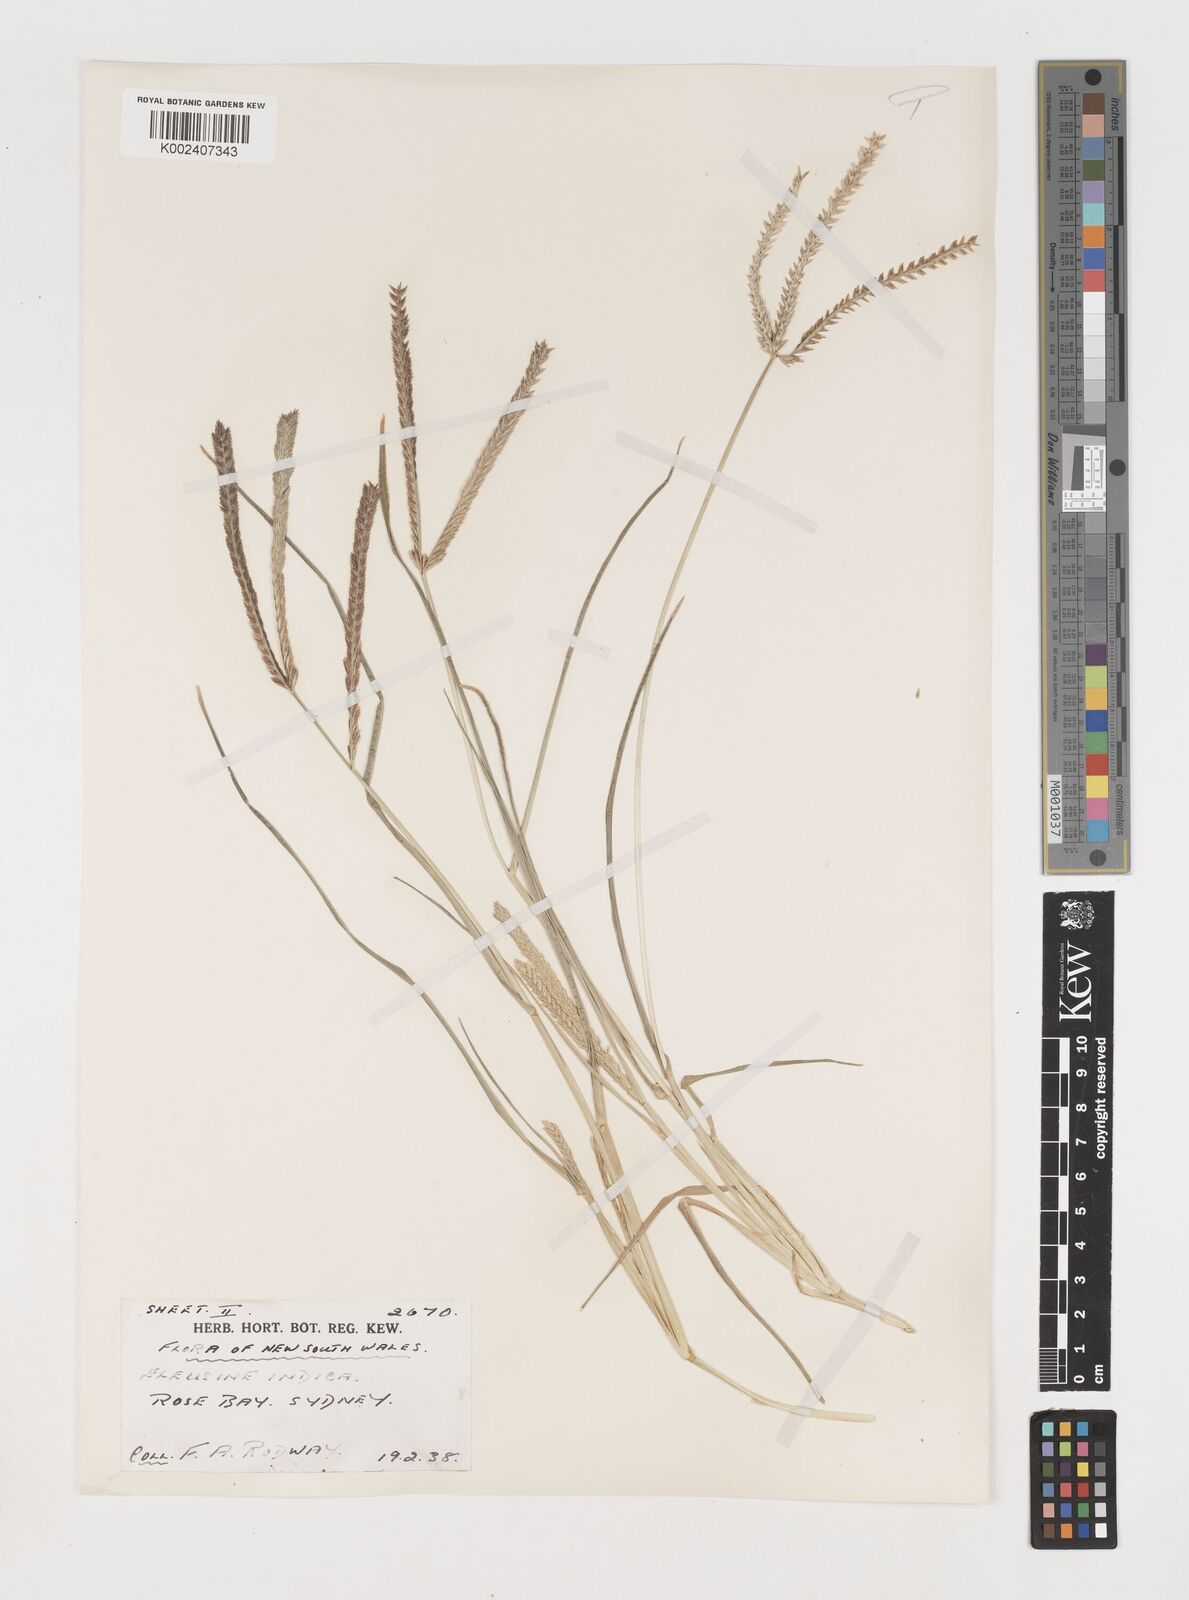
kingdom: Plantae
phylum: Tracheophyta
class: Liliopsida
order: Poales
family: Poaceae
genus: Eleusine
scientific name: Eleusine indica
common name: Yard-grass
